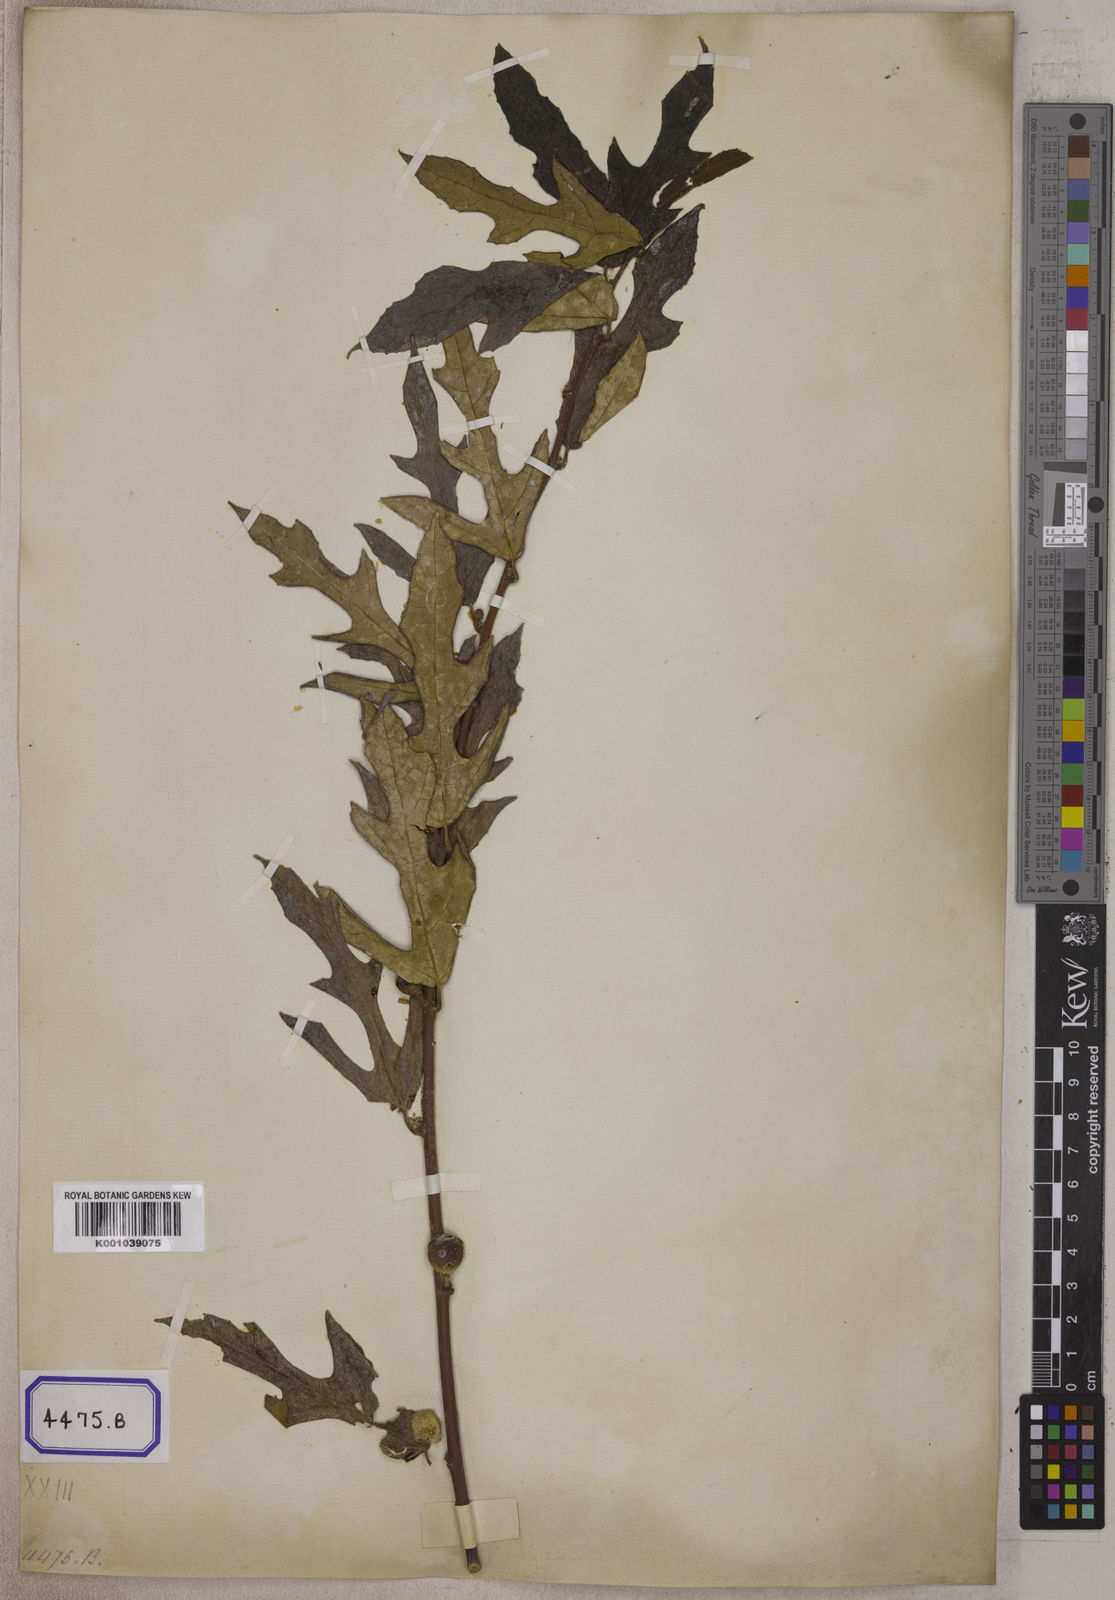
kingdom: Plantae
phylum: Tracheophyta
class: Magnoliopsida
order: Rosales
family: Moraceae
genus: Ficus
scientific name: Ficus
